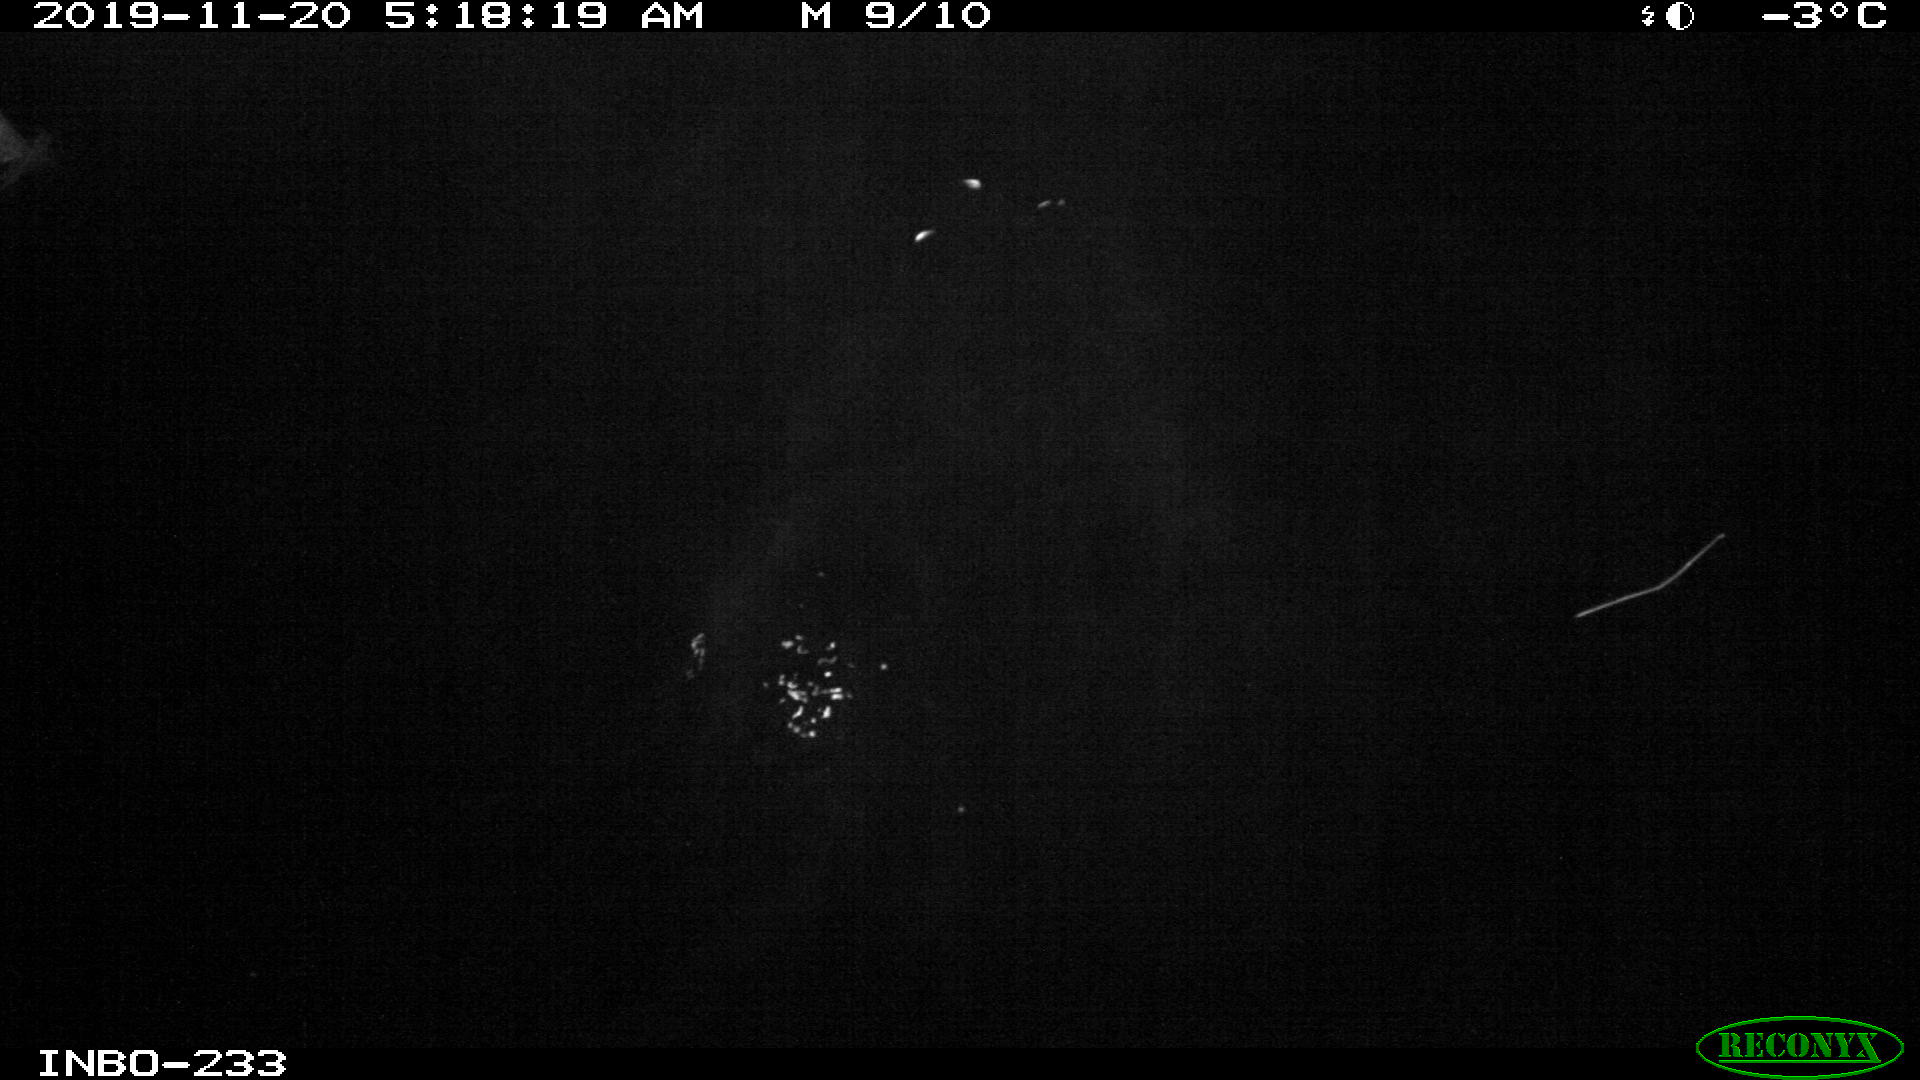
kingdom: Animalia
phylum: Chordata
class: Aves
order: Anseriformes
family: Anatidae
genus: Anas
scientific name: Anas platyrhynchos
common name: Mallard
